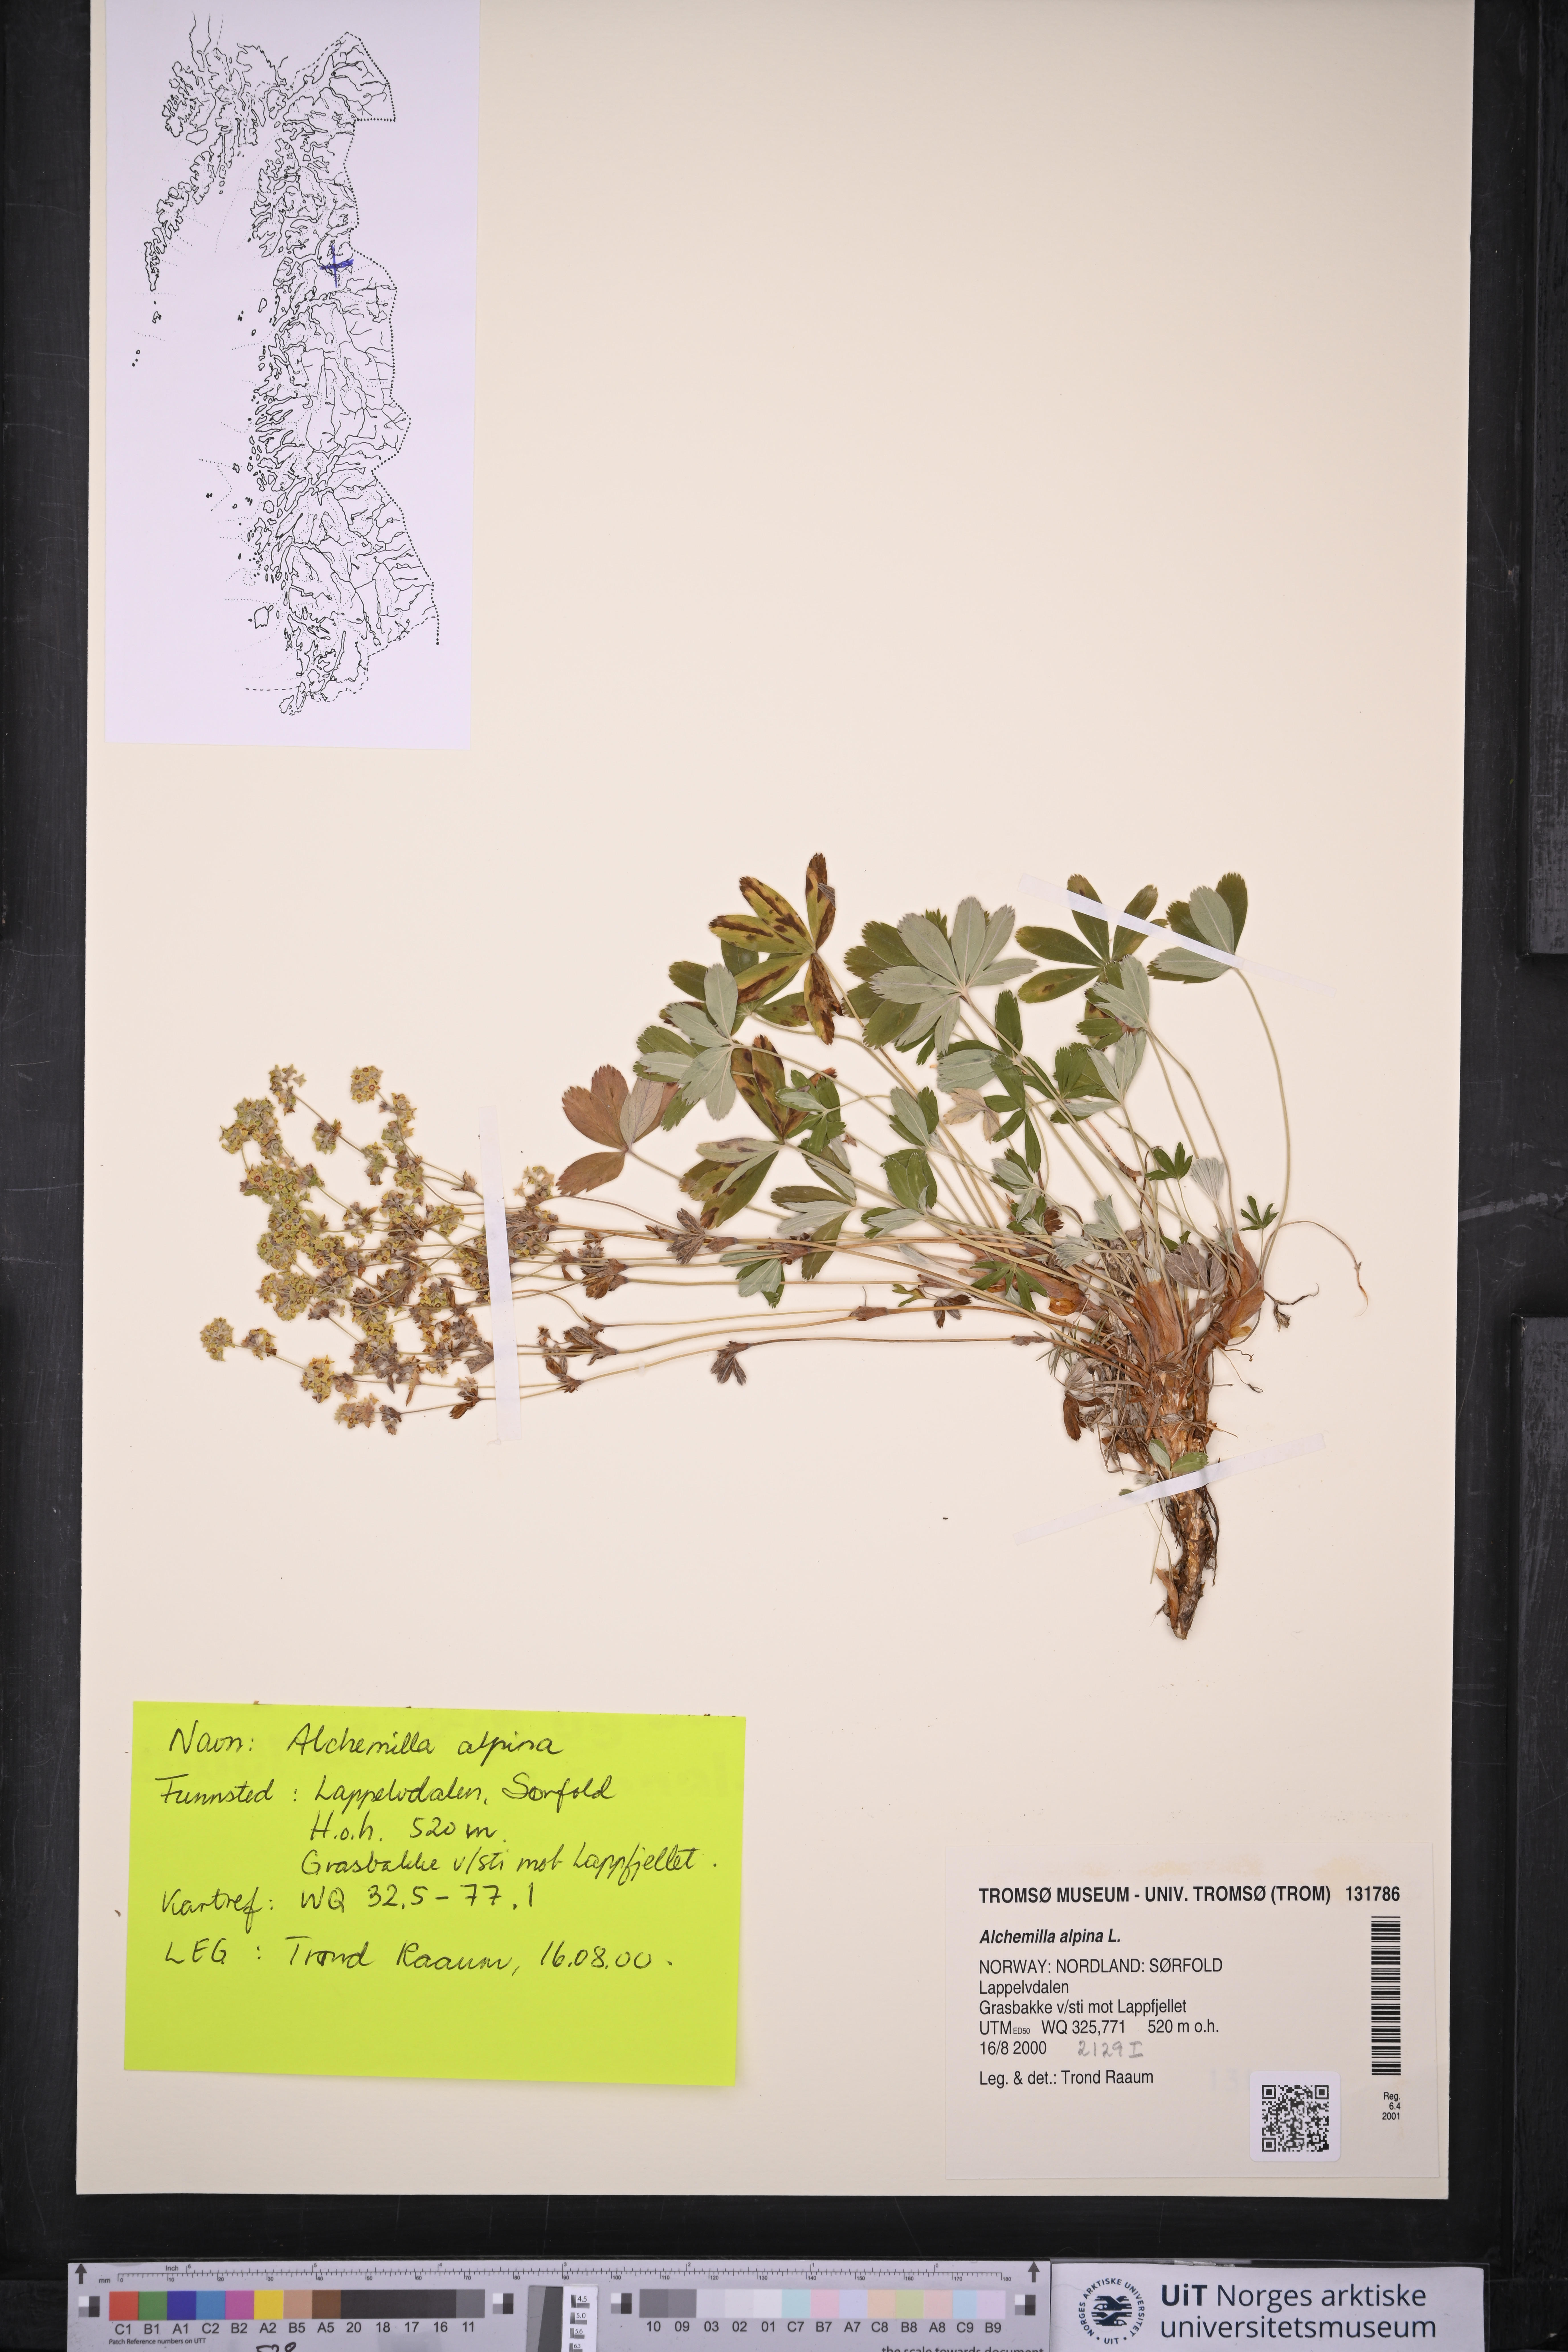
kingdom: Plantae
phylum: Tracheophyta
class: Magnoliopsida
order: Rosales
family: Rosaceae
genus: Alchemilla
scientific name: Alchemilla alpina
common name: Alpine lady's-mantle
